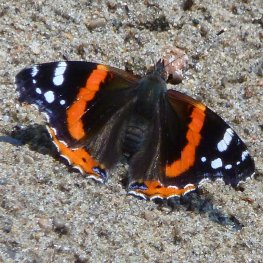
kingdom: Animalia
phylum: Arthropoda
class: Insecta
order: Lepidoptera
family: Nymphalidae
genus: Vanessa
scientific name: Vanessa atalanta
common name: Red Admiral
